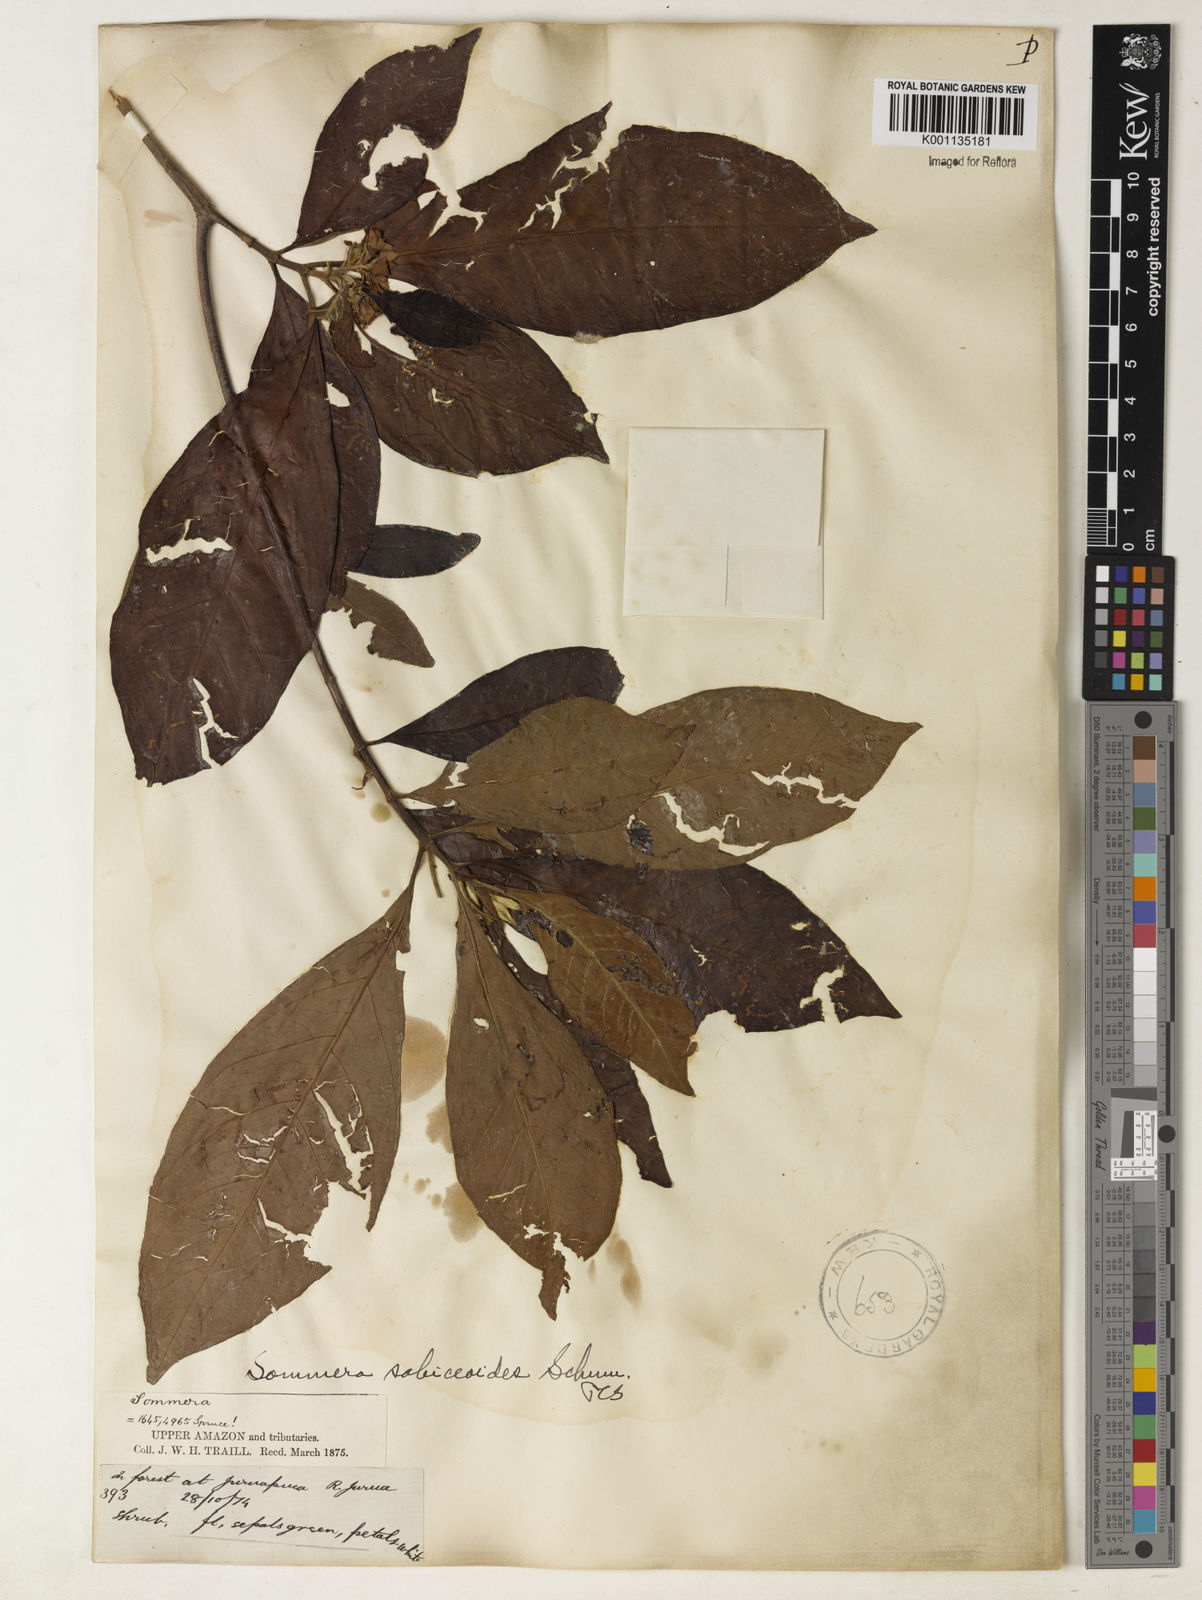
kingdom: Plantae
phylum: Tracheophyta
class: Magnoliopsida
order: Gentianales
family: Rubiaceae
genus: Sommera
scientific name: Sommera sabiceoides
